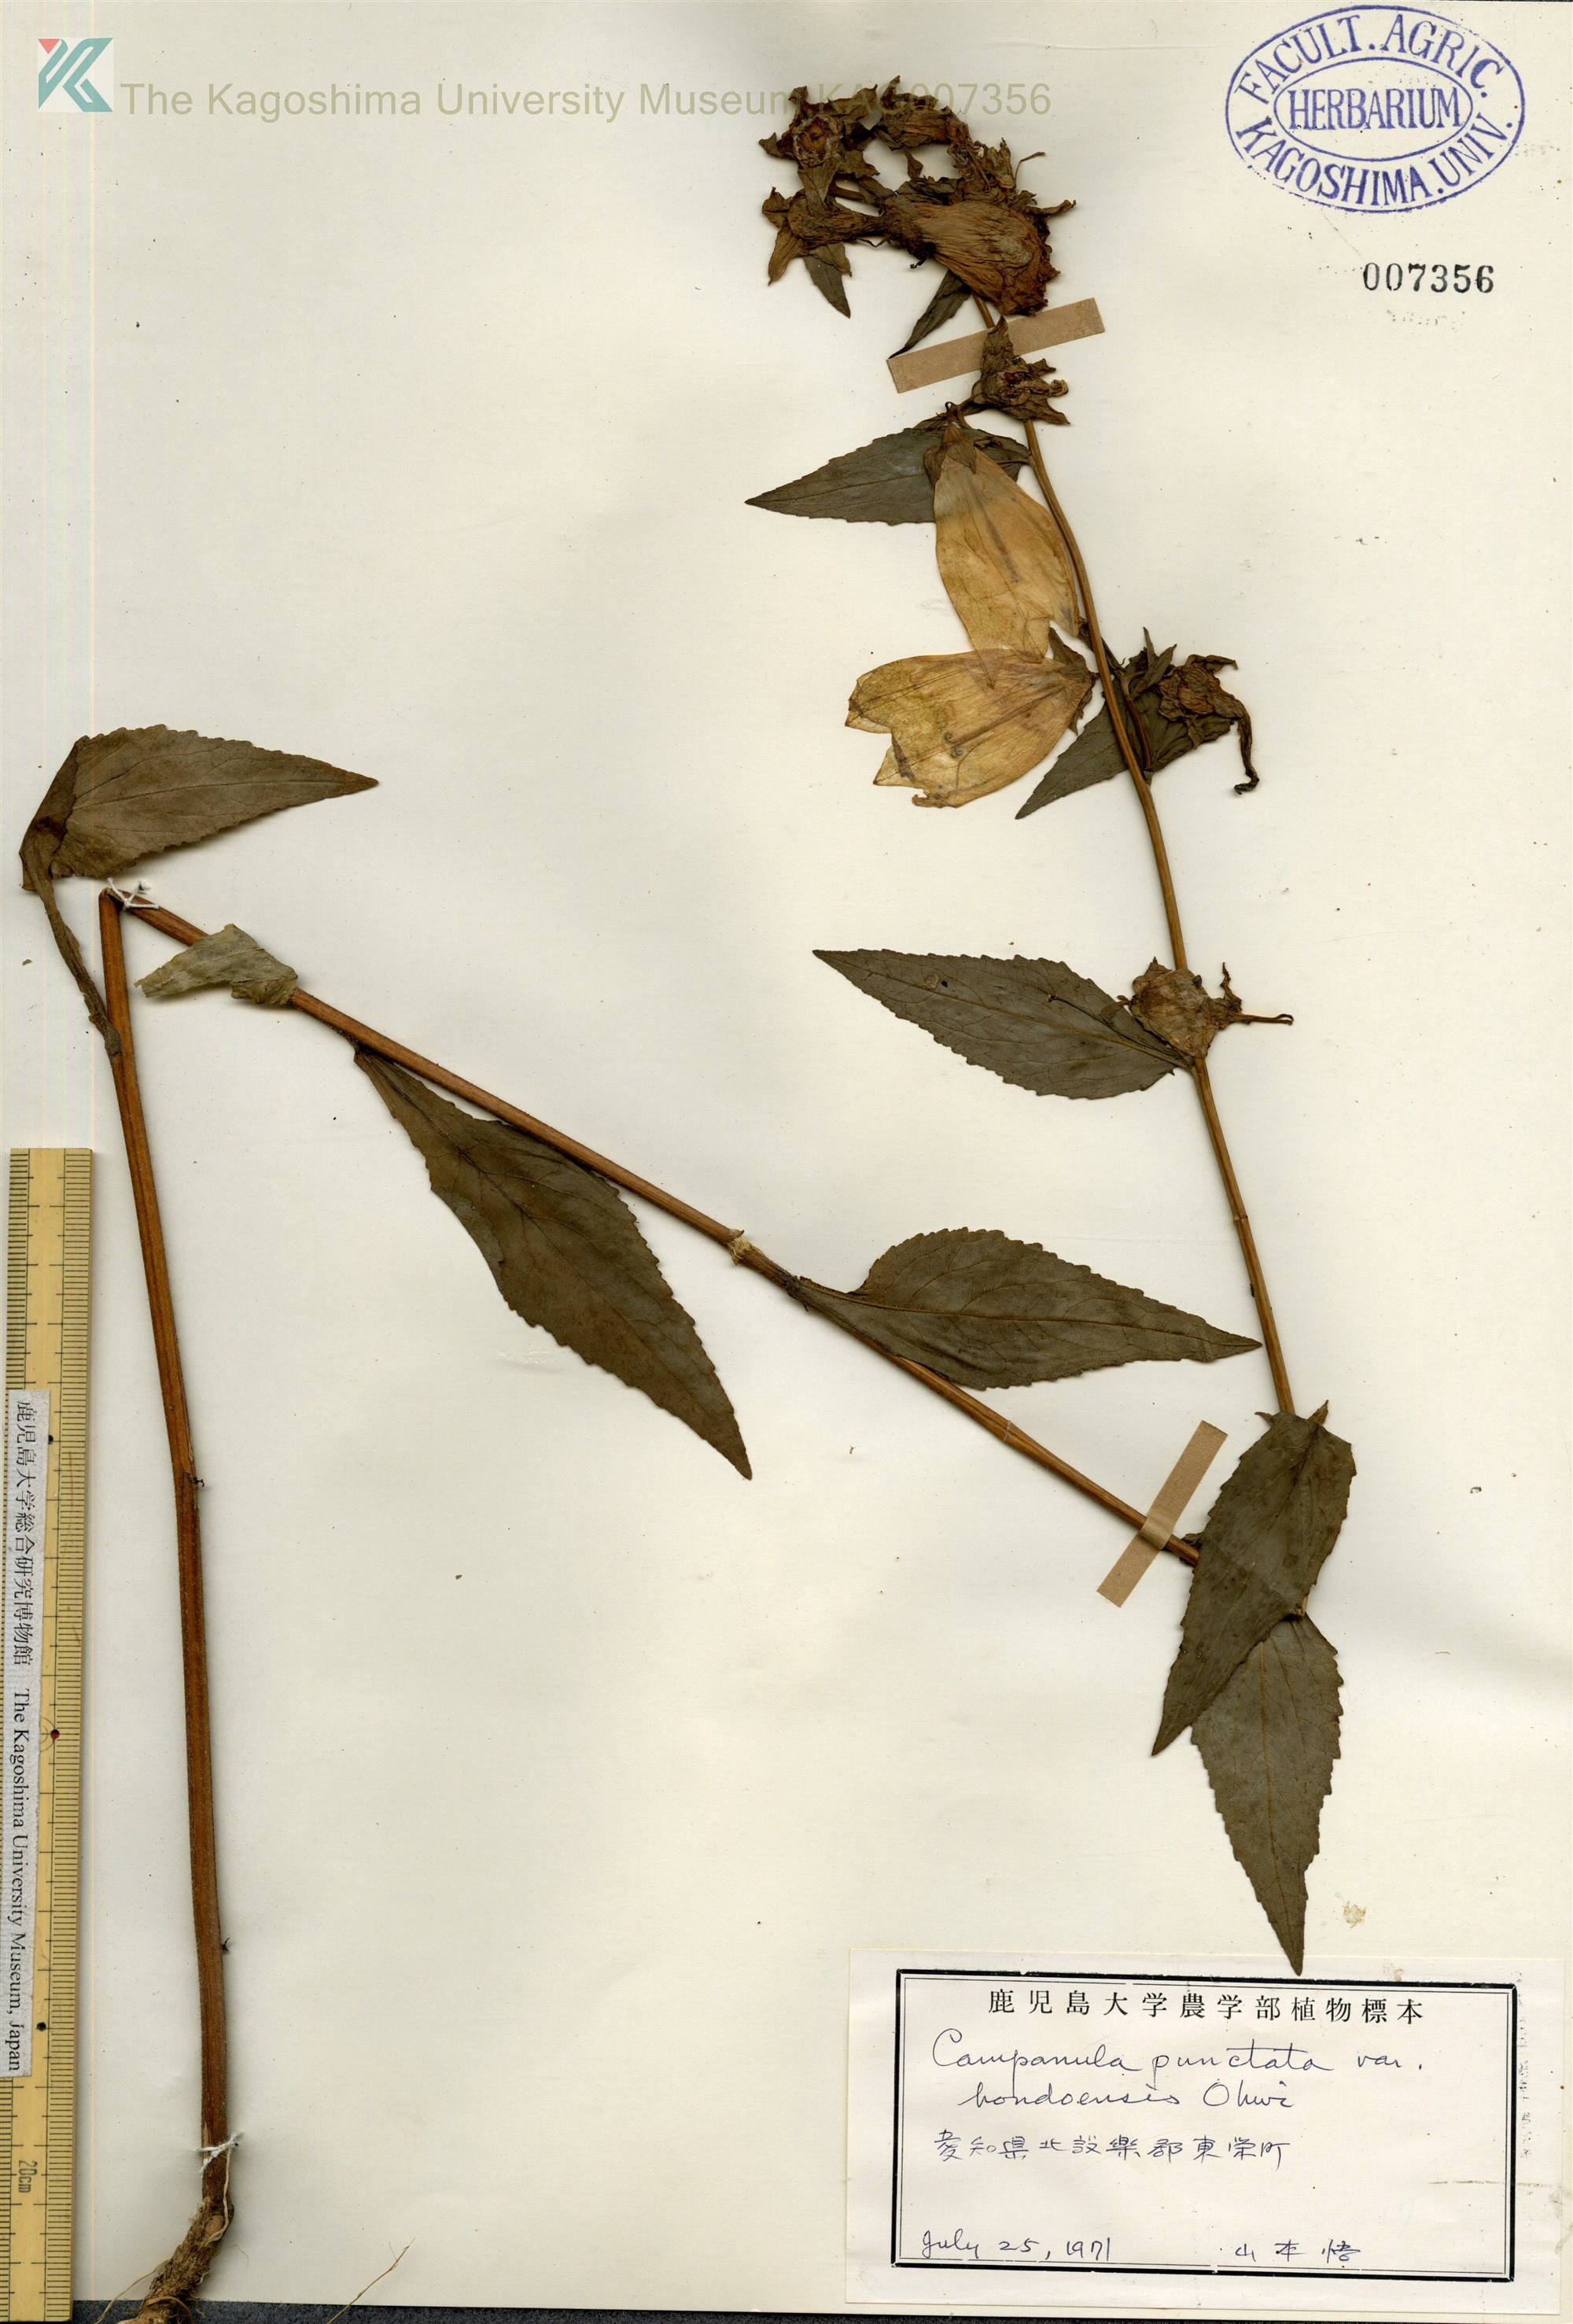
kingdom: Plantae
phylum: Tracheophyta
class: Magnoliopsida
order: Asterales
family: Campanulaceae
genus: Campanula
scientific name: Campanula punctata
